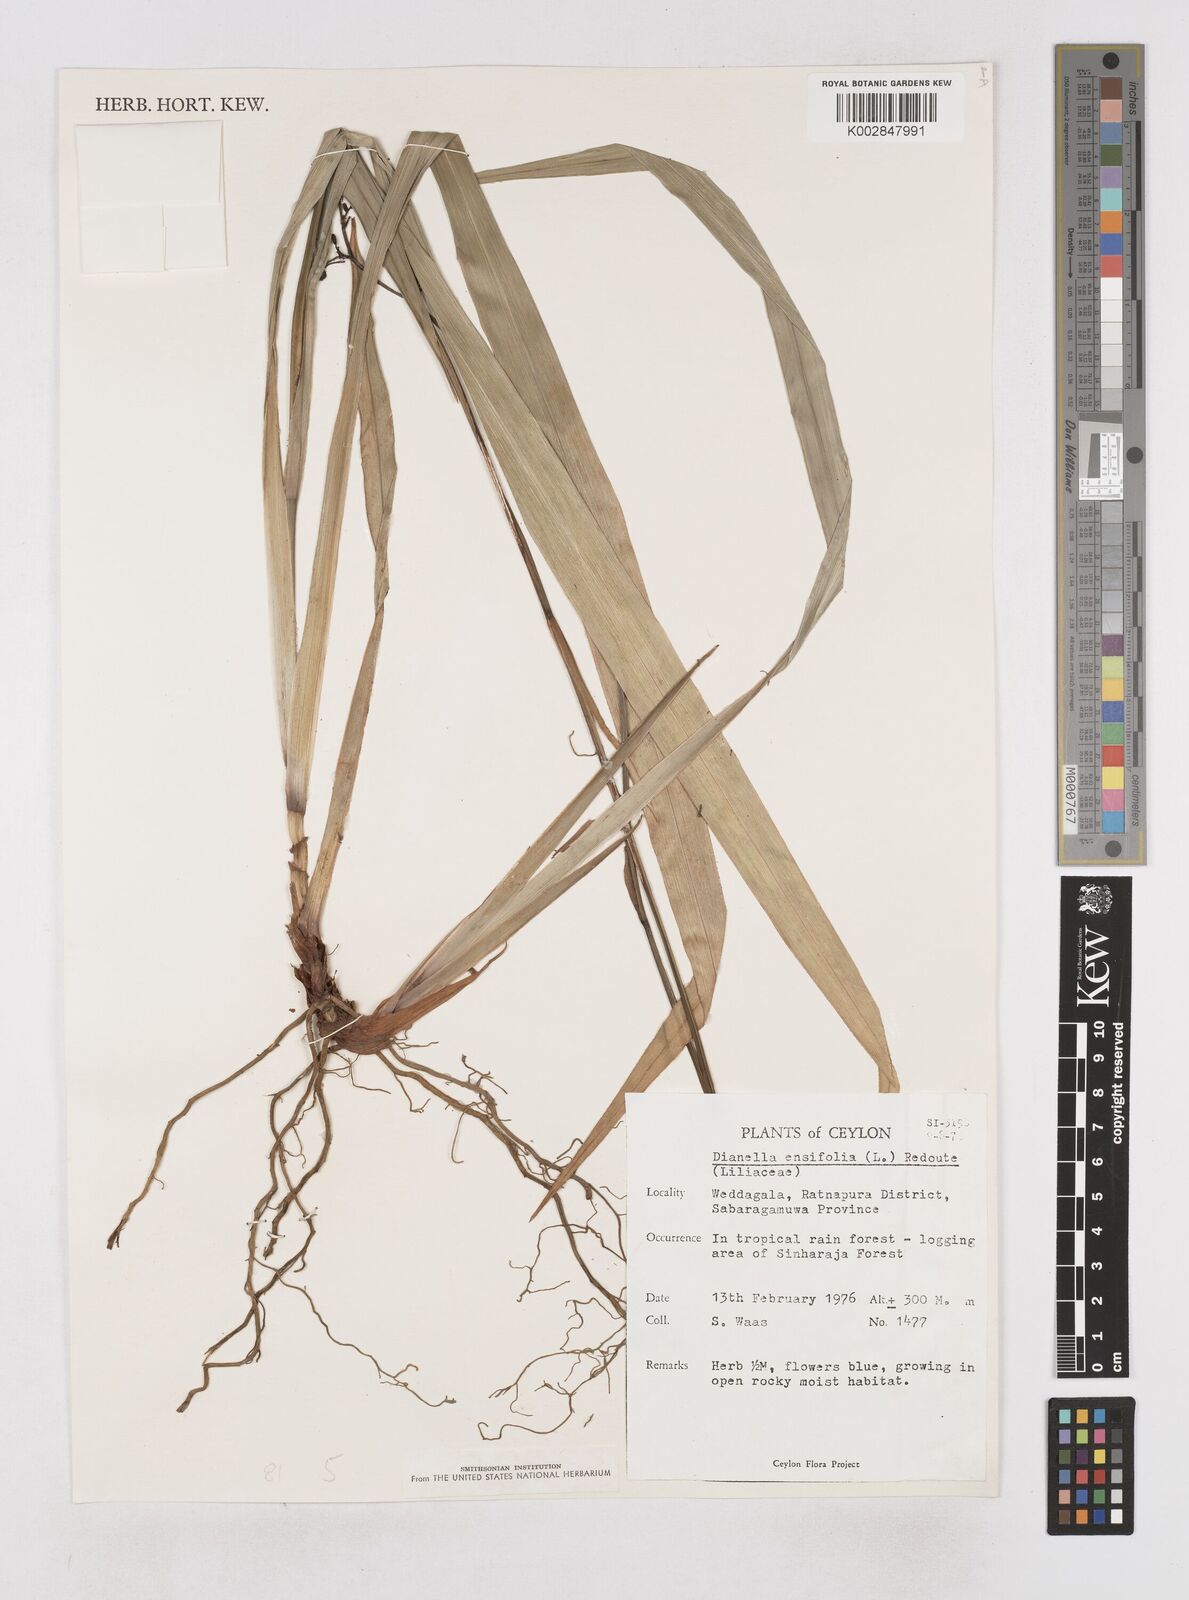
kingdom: Plantae
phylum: Tracheophyta
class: Liliopsida
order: Asparagales
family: Asphodelaceae
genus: Dianella
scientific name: Dianella ensifolia
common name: New zealand lilyplant
